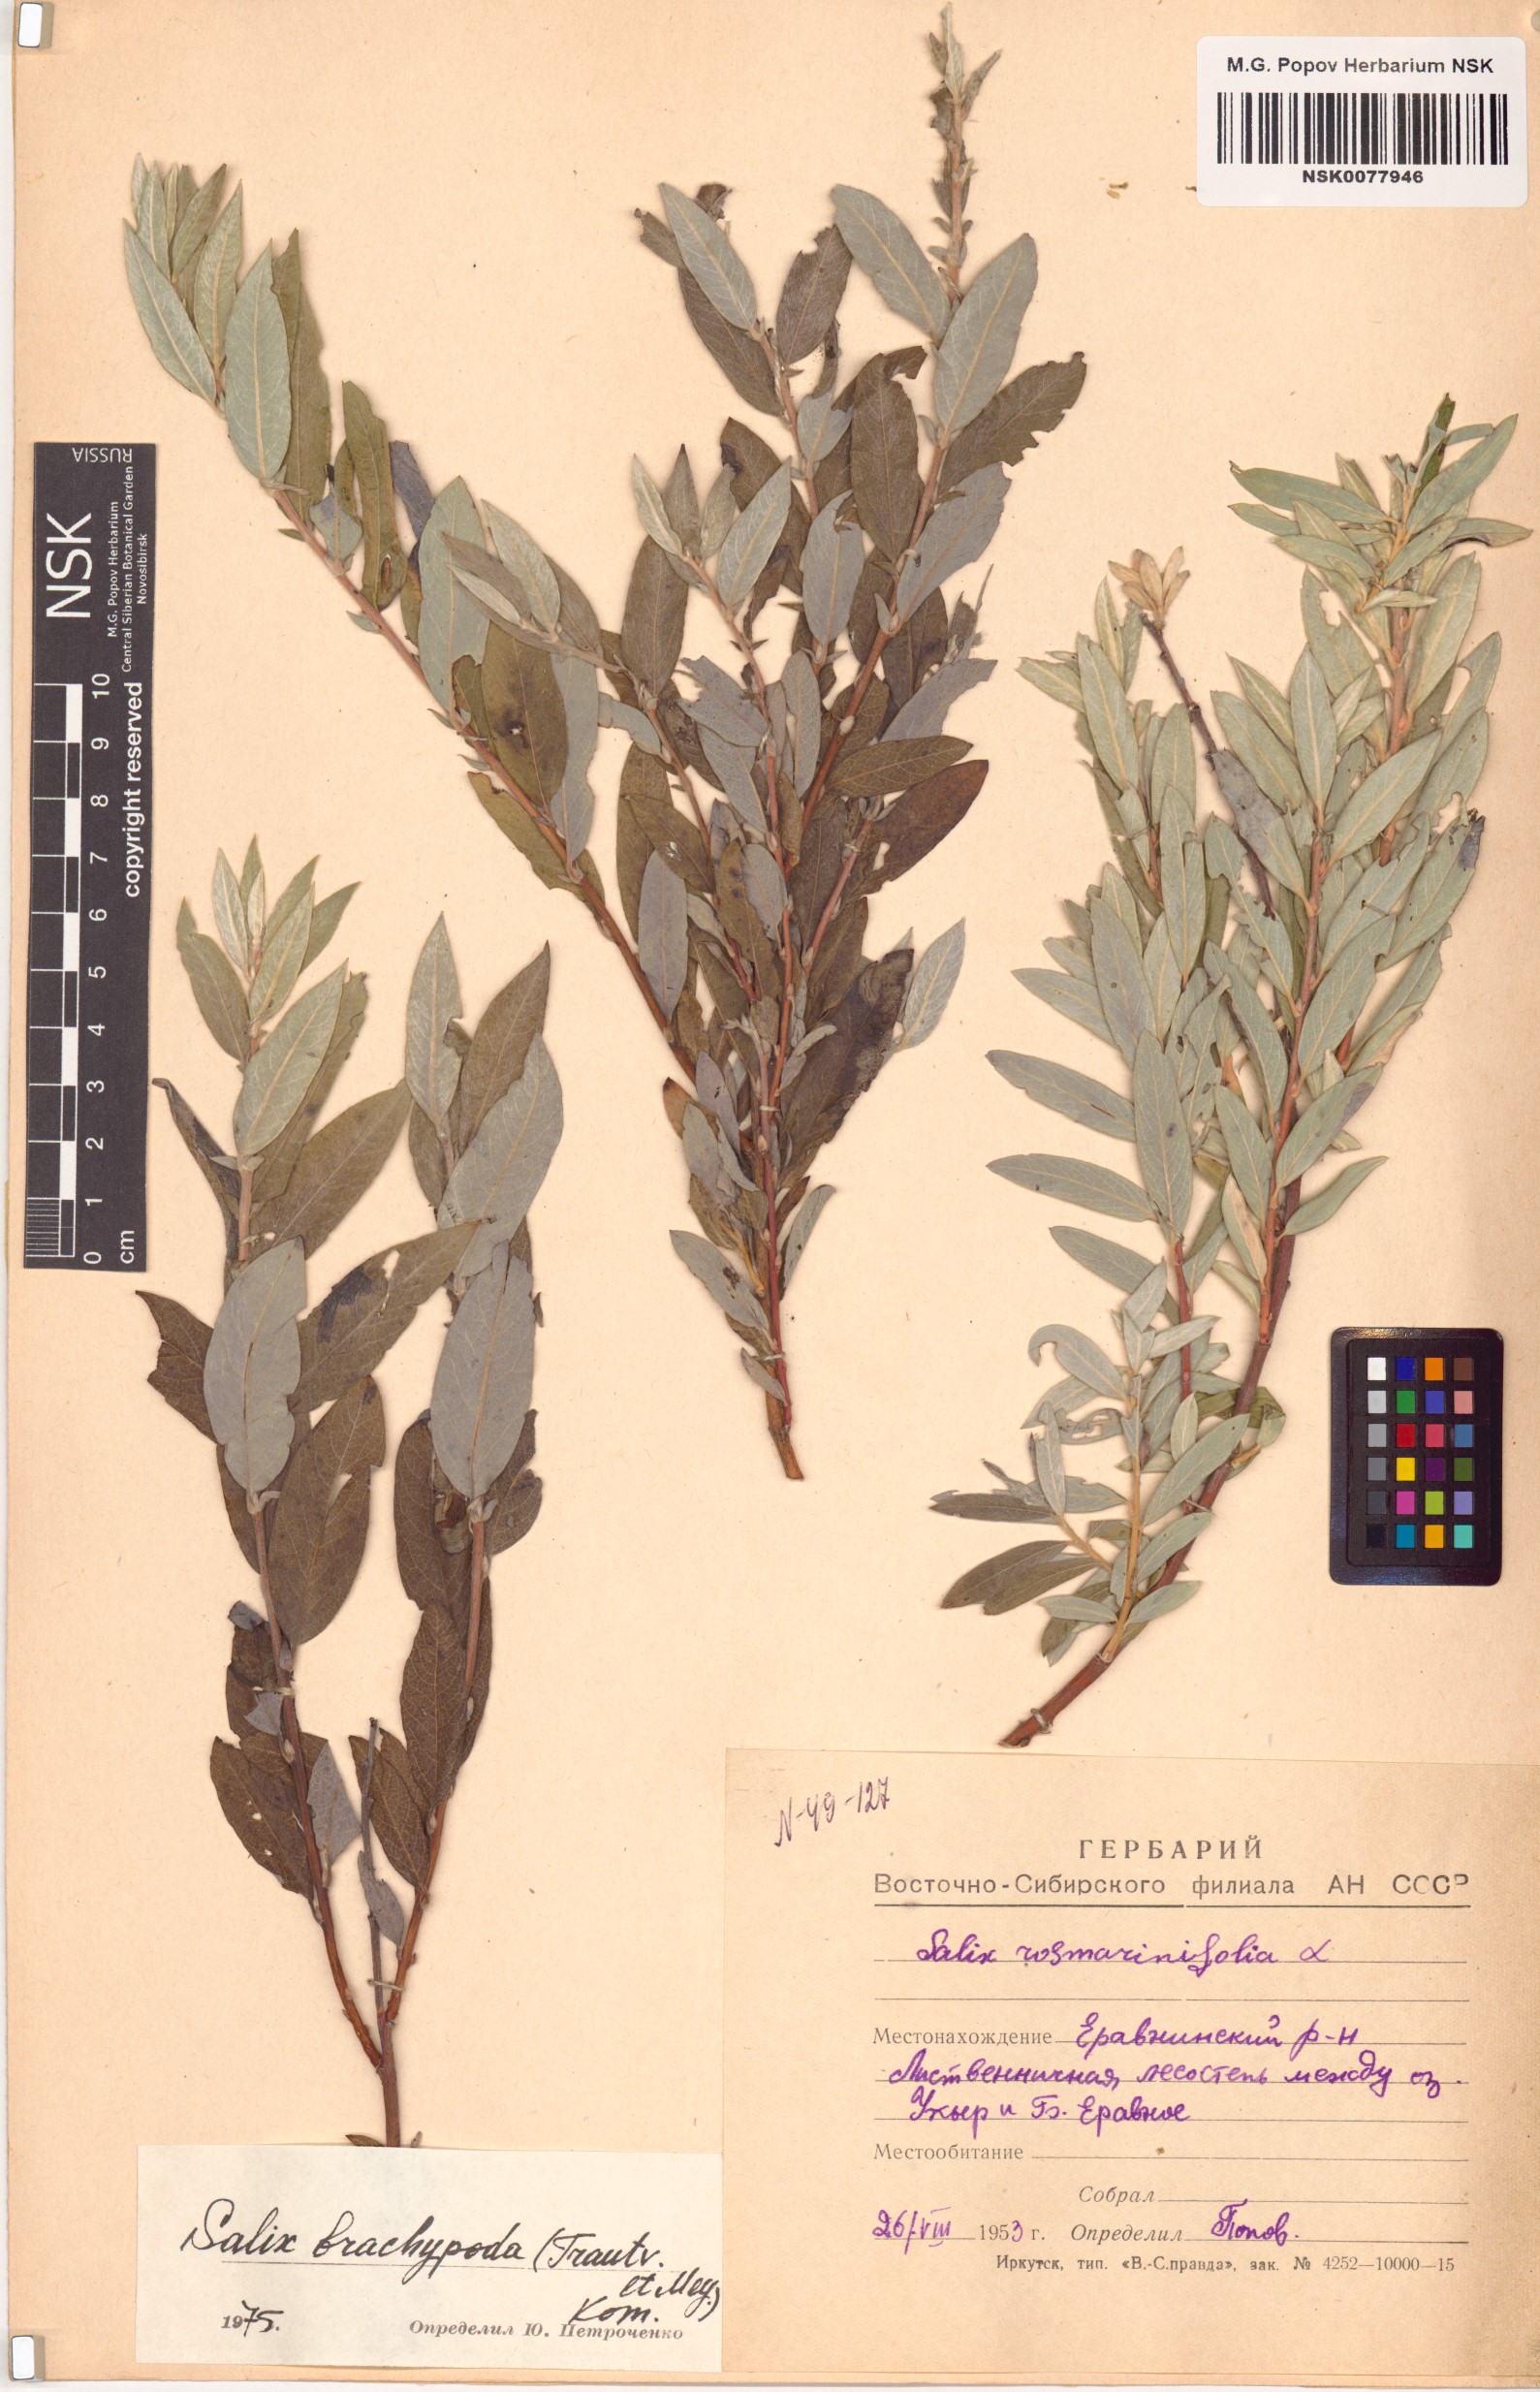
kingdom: Plantae
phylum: Tracheophyta
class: Magnoliopsida
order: Malpighiales
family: Salicaceae
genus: Salix
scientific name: Salix brachypoda
